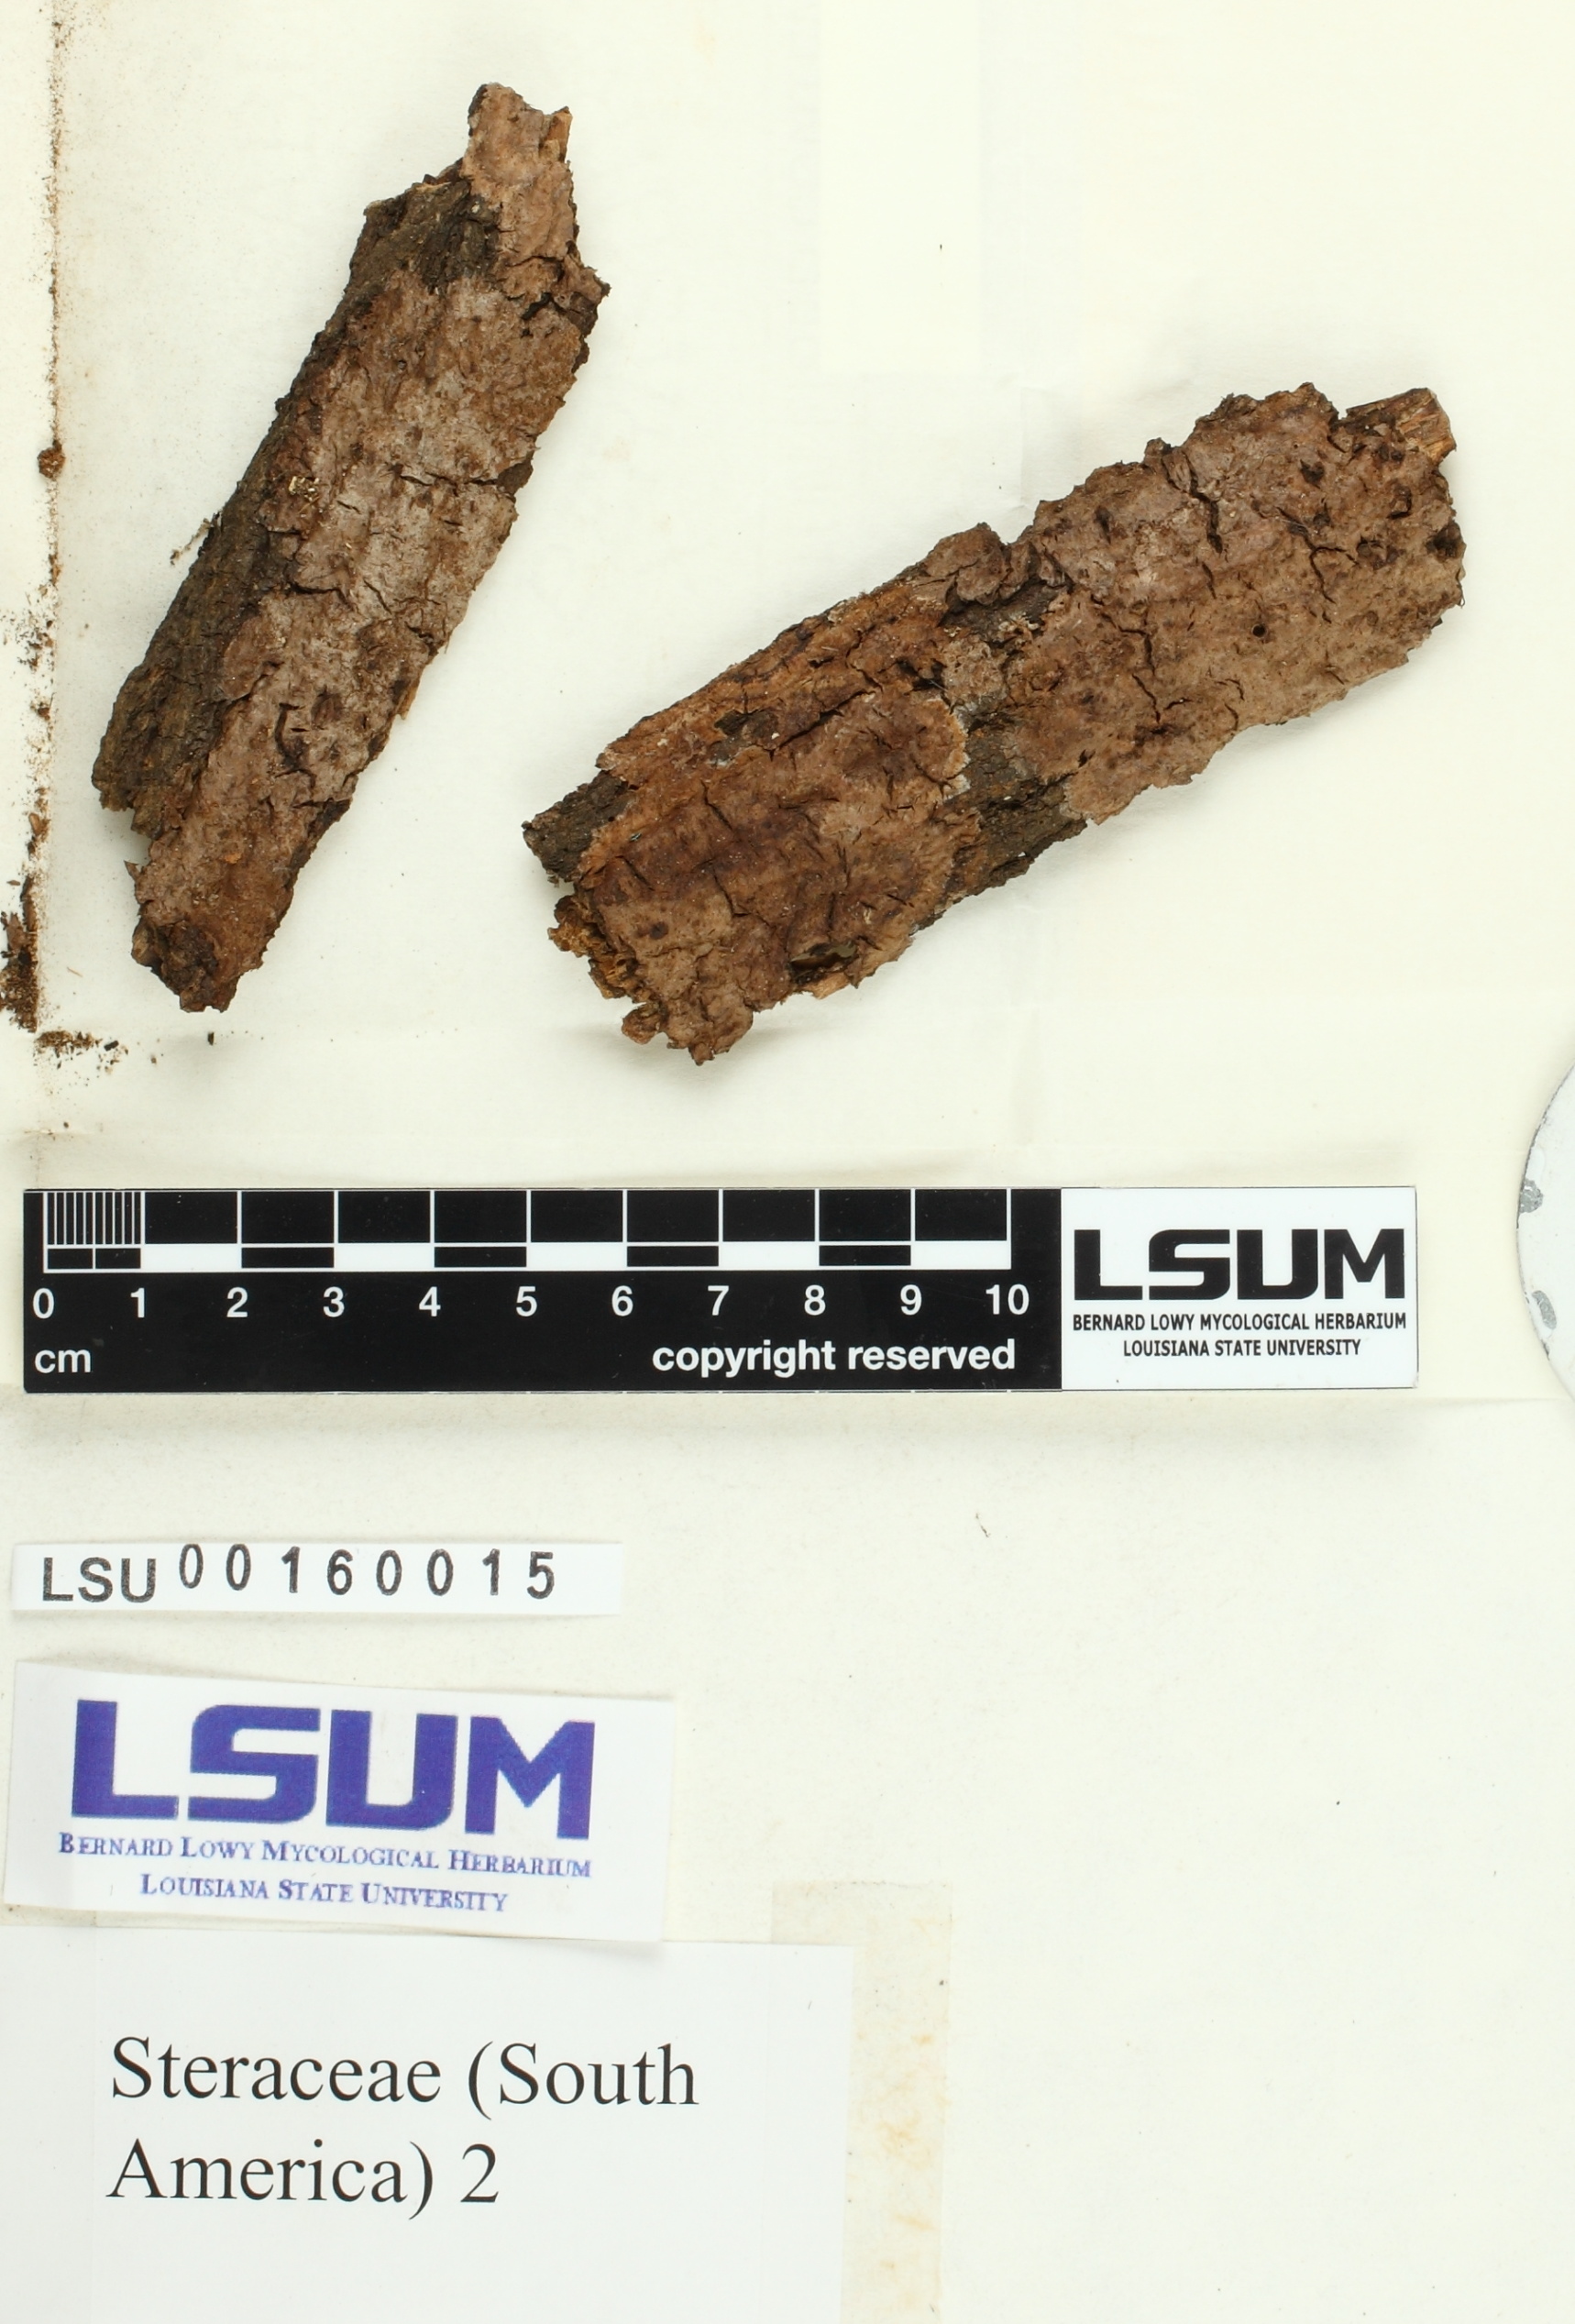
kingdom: Fungi
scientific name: Fungi
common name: Fungi
